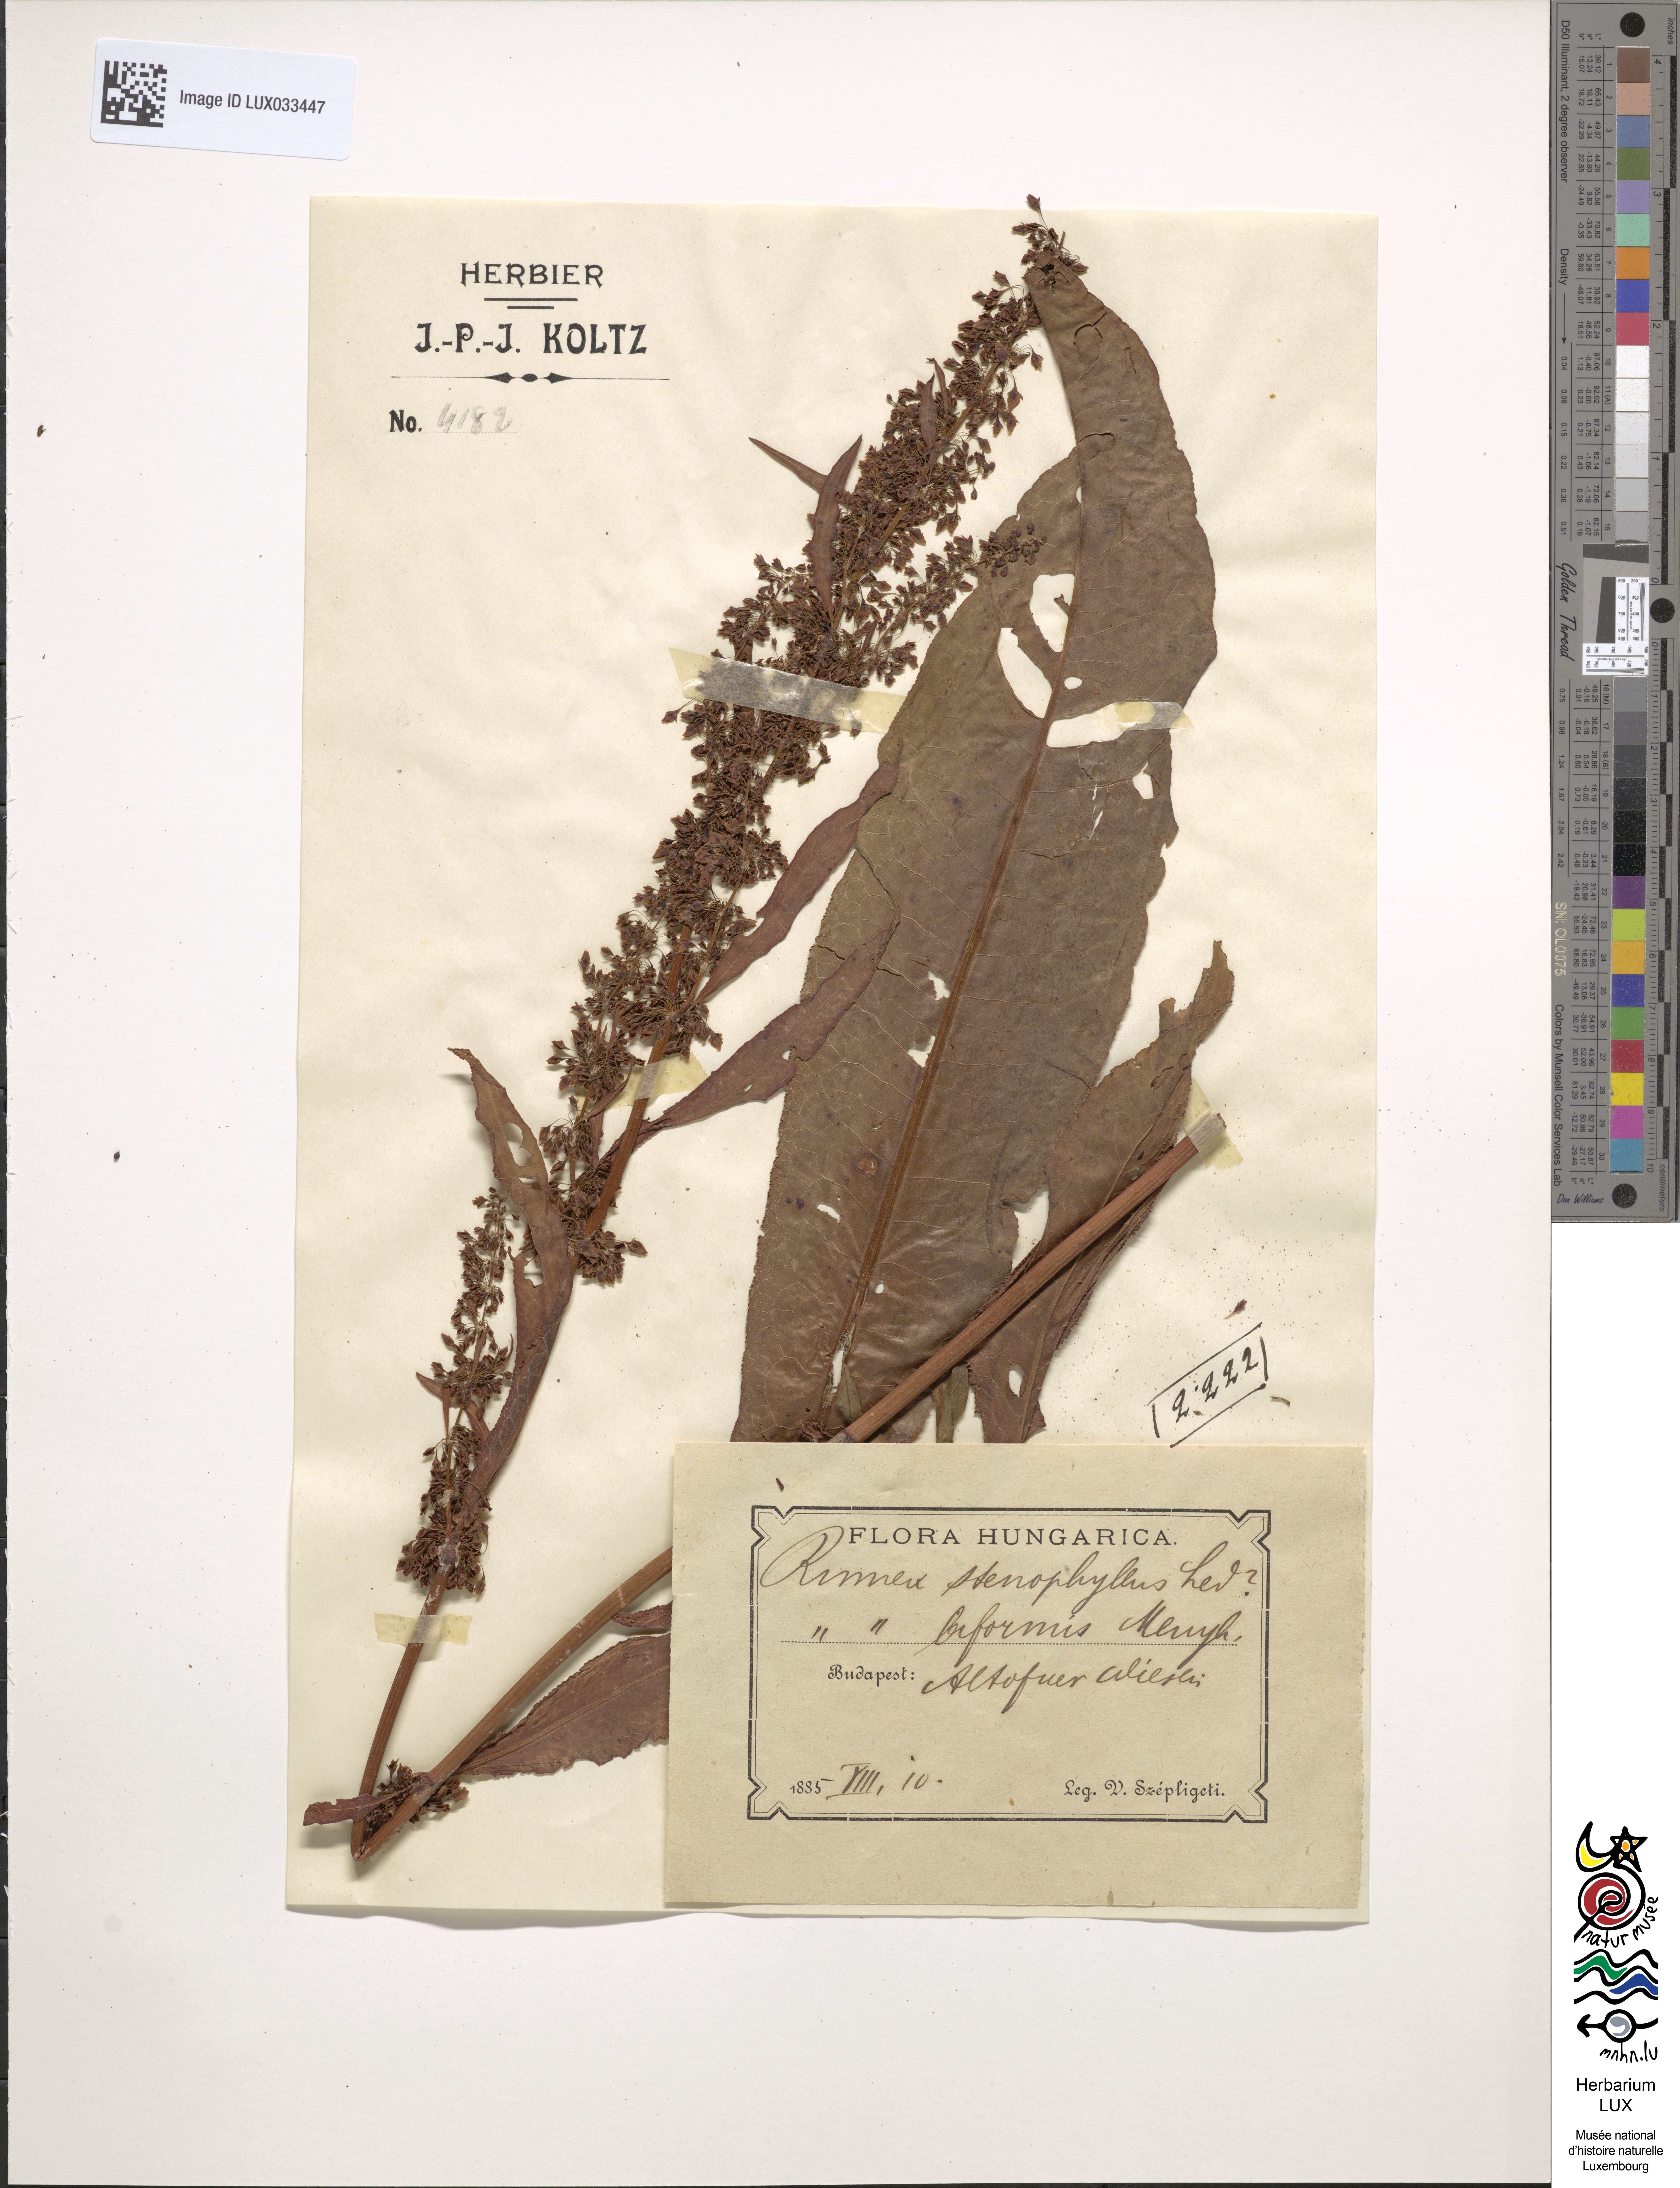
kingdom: Plantae
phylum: Tracheophyta
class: Magnoliopsida
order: Caryophyllales
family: Polygonaceae
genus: Rumex
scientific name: Rumex stenophyllus
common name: Narrowleaf dock
